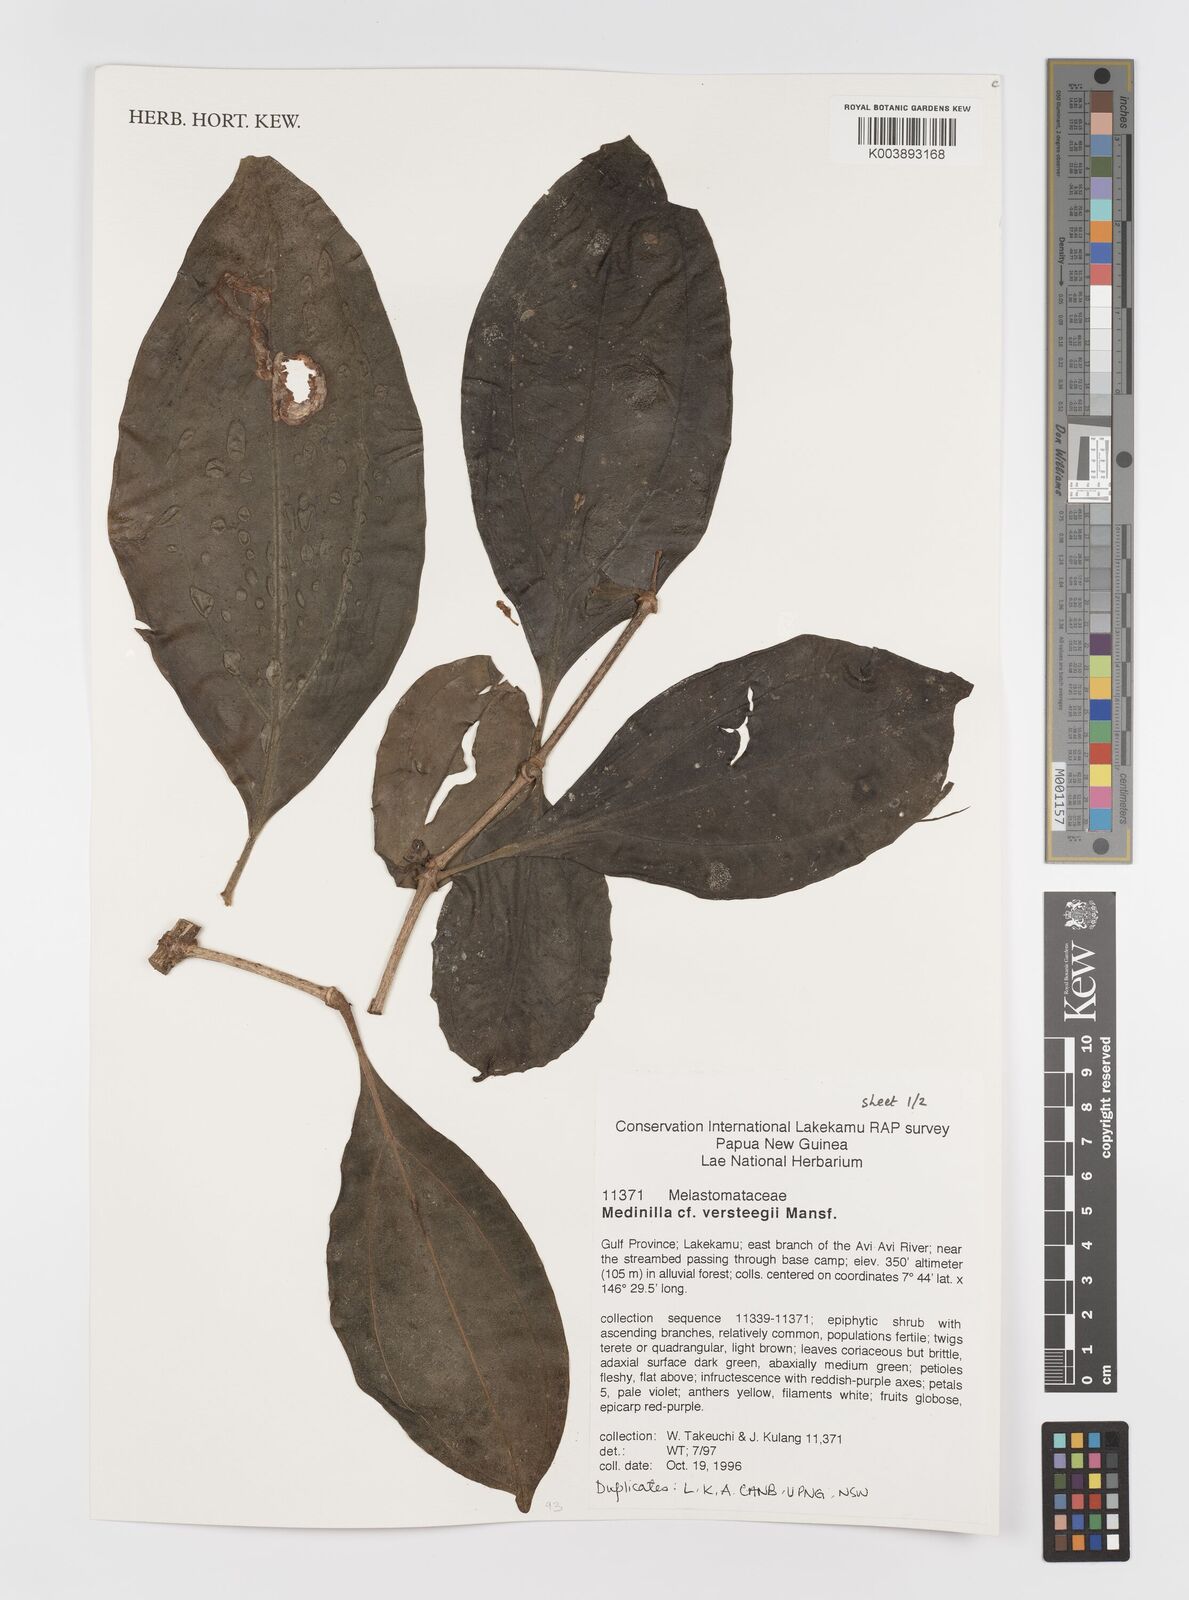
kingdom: Plantae
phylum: Tracheophyta
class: Magnoliopsida
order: Myrtales
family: Melastomataceae
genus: Medinilla
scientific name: Medinilla versteegii
